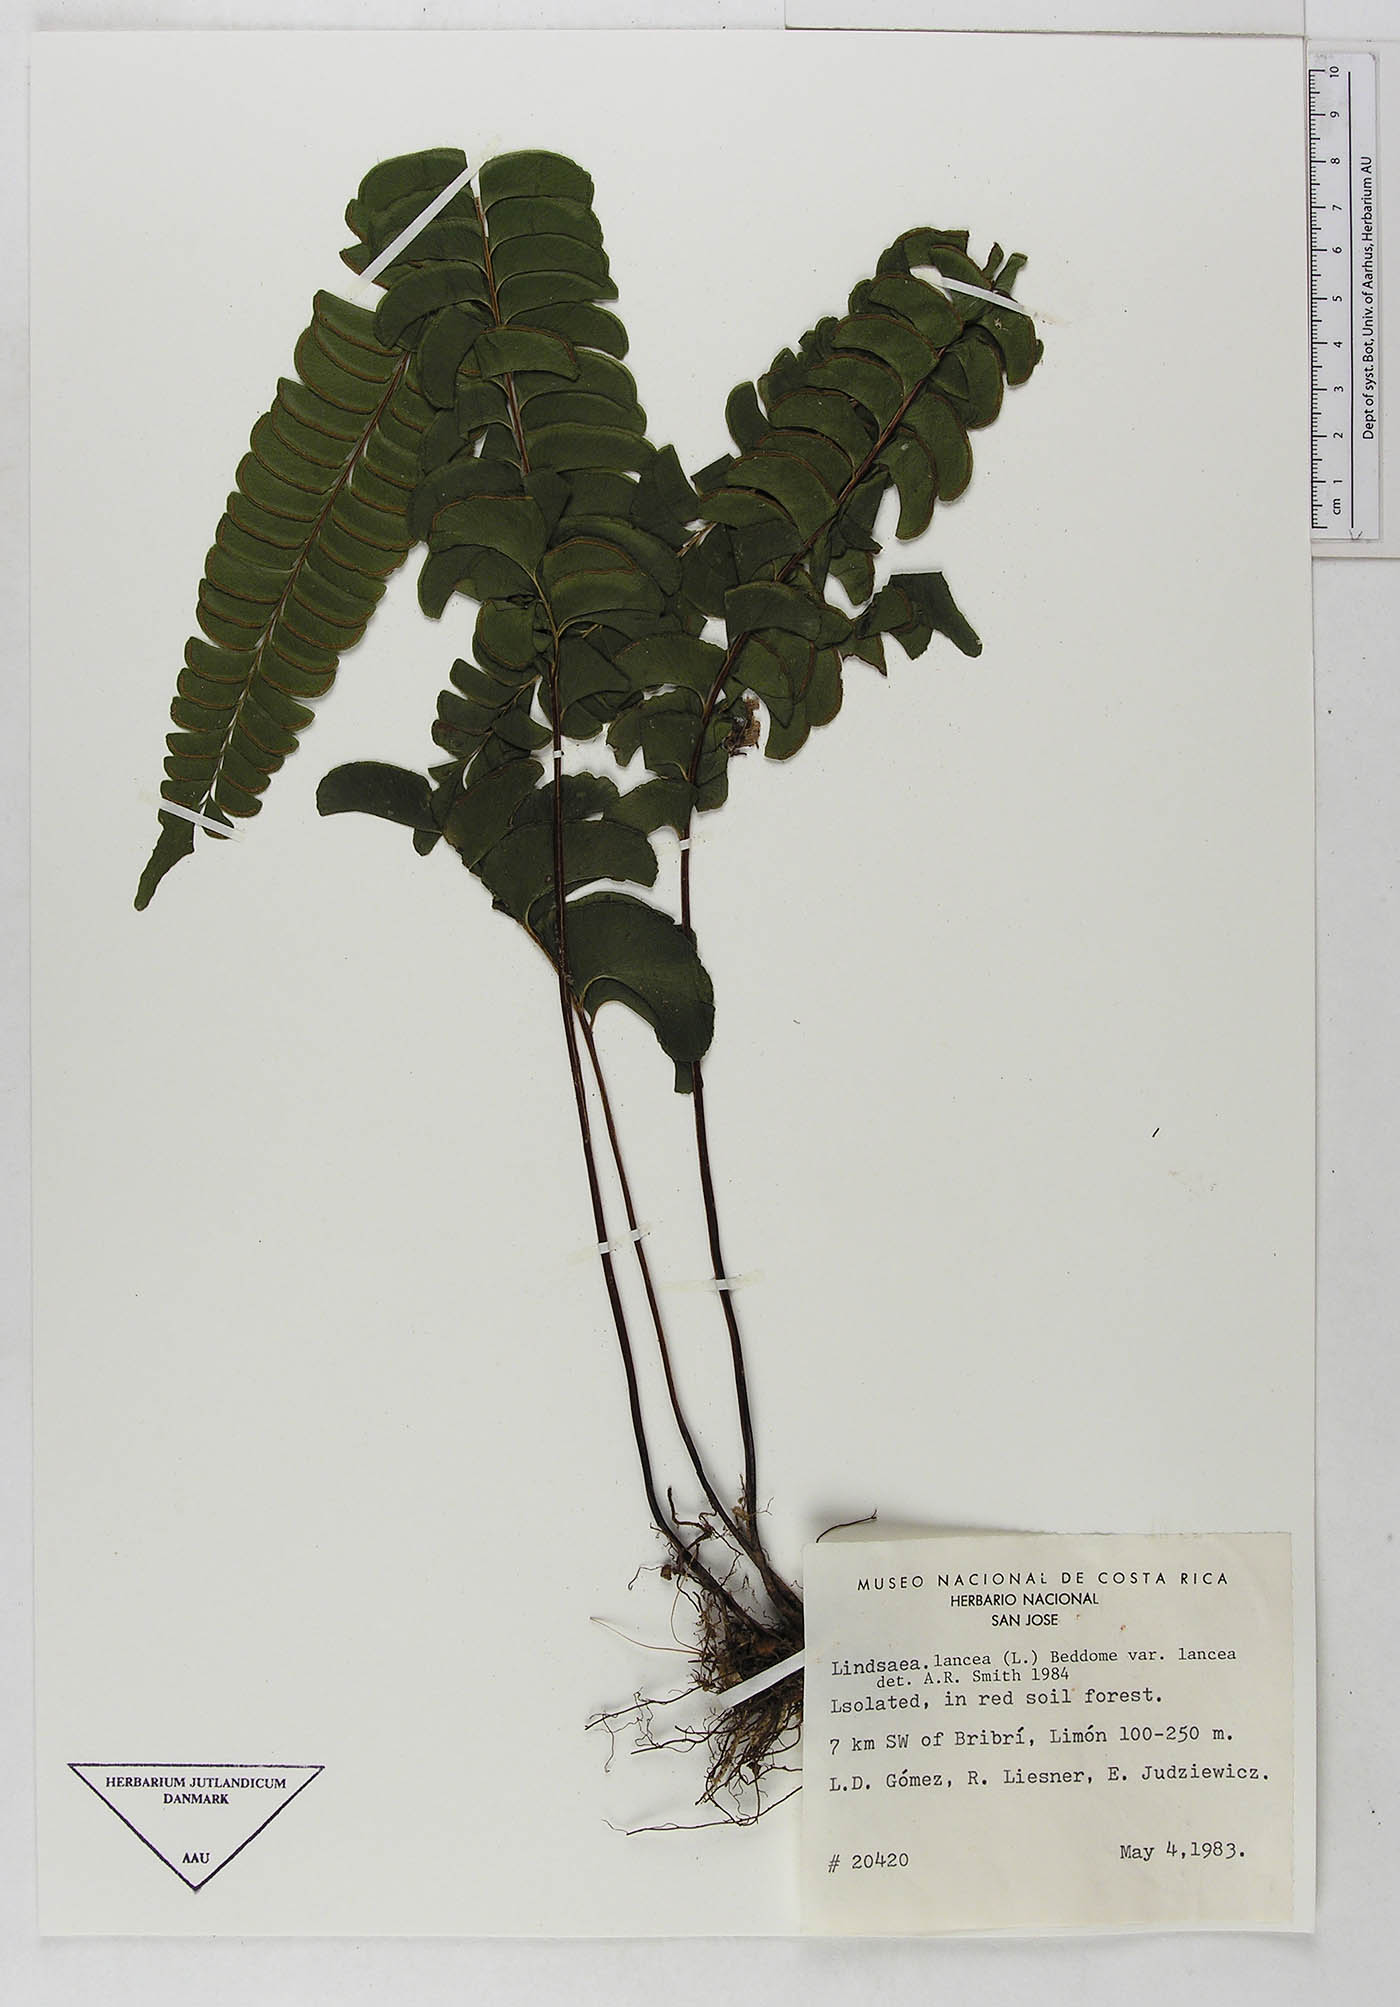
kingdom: Plantae
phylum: Tracheophyta
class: Polypodiopsida
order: Polypodiales
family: Dennstaedtiaceae
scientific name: Dennstaedtiaceae
